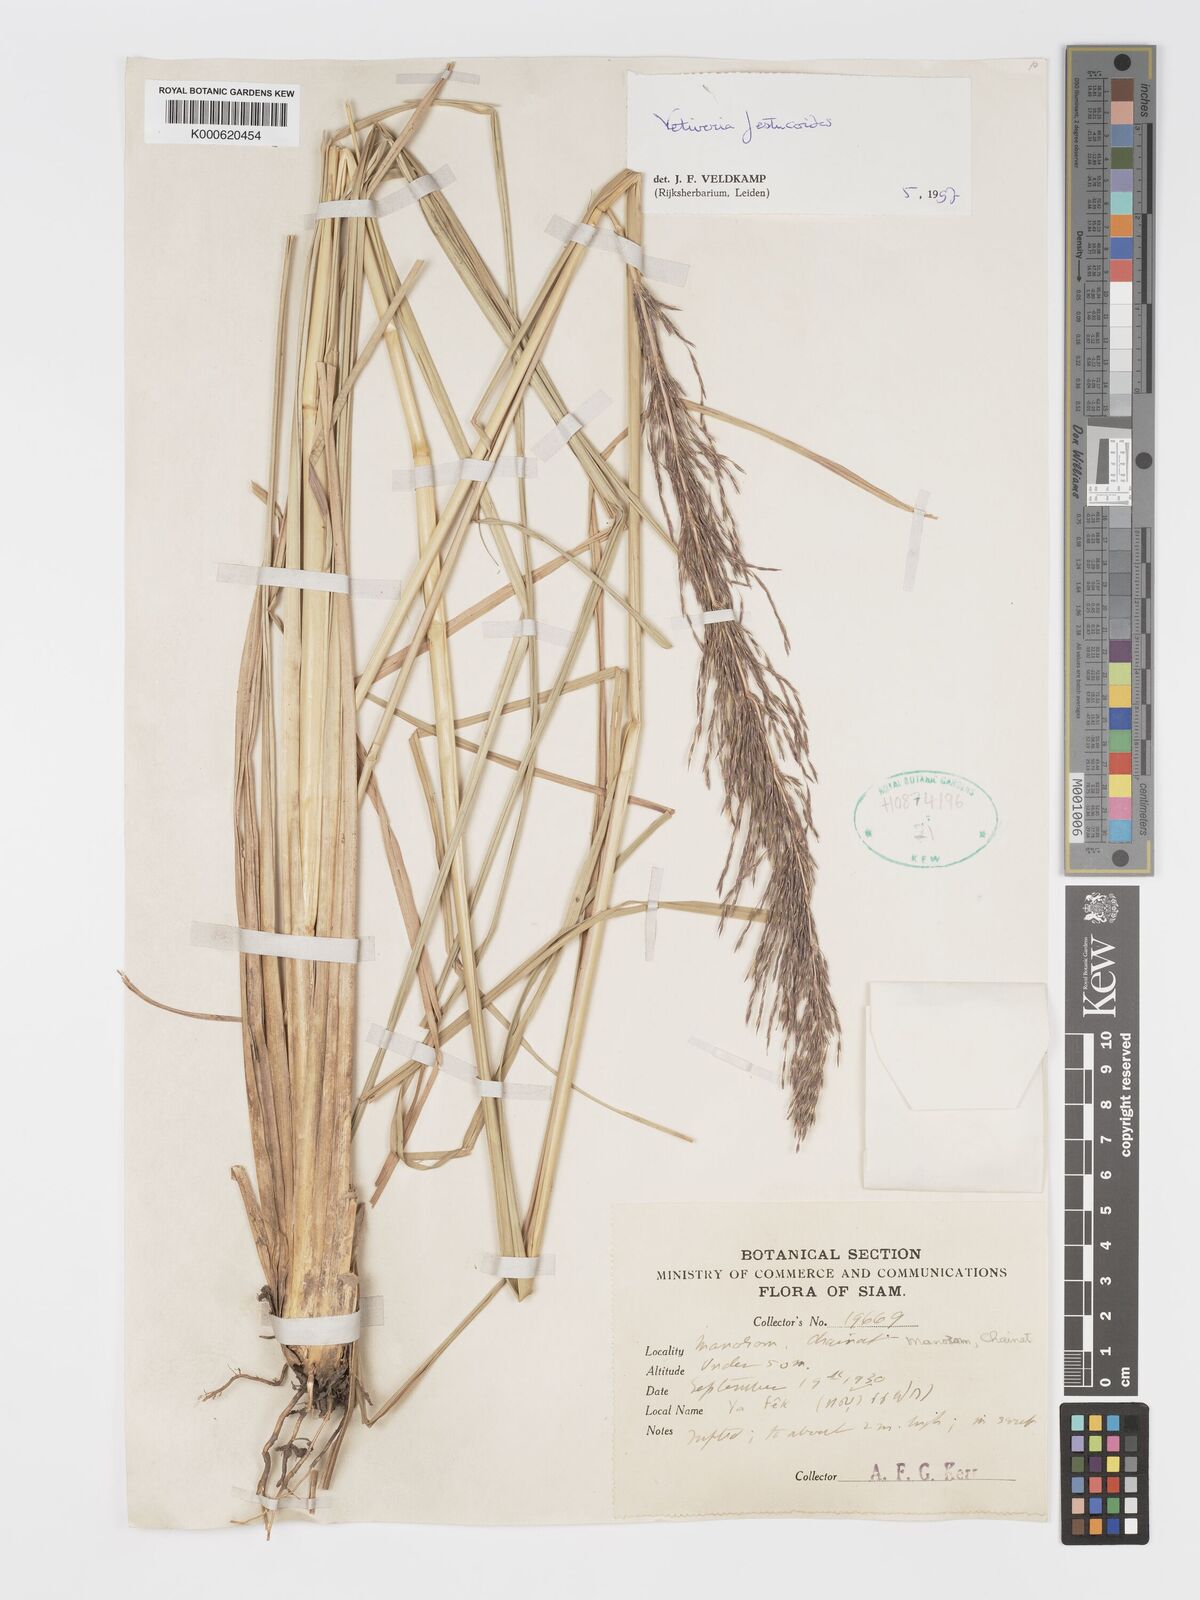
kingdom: Plantae
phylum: Tracheophyta
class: Liliopsida
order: Poales
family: Poaceae
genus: Chrysopogon
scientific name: Chrysopogon festucoides
